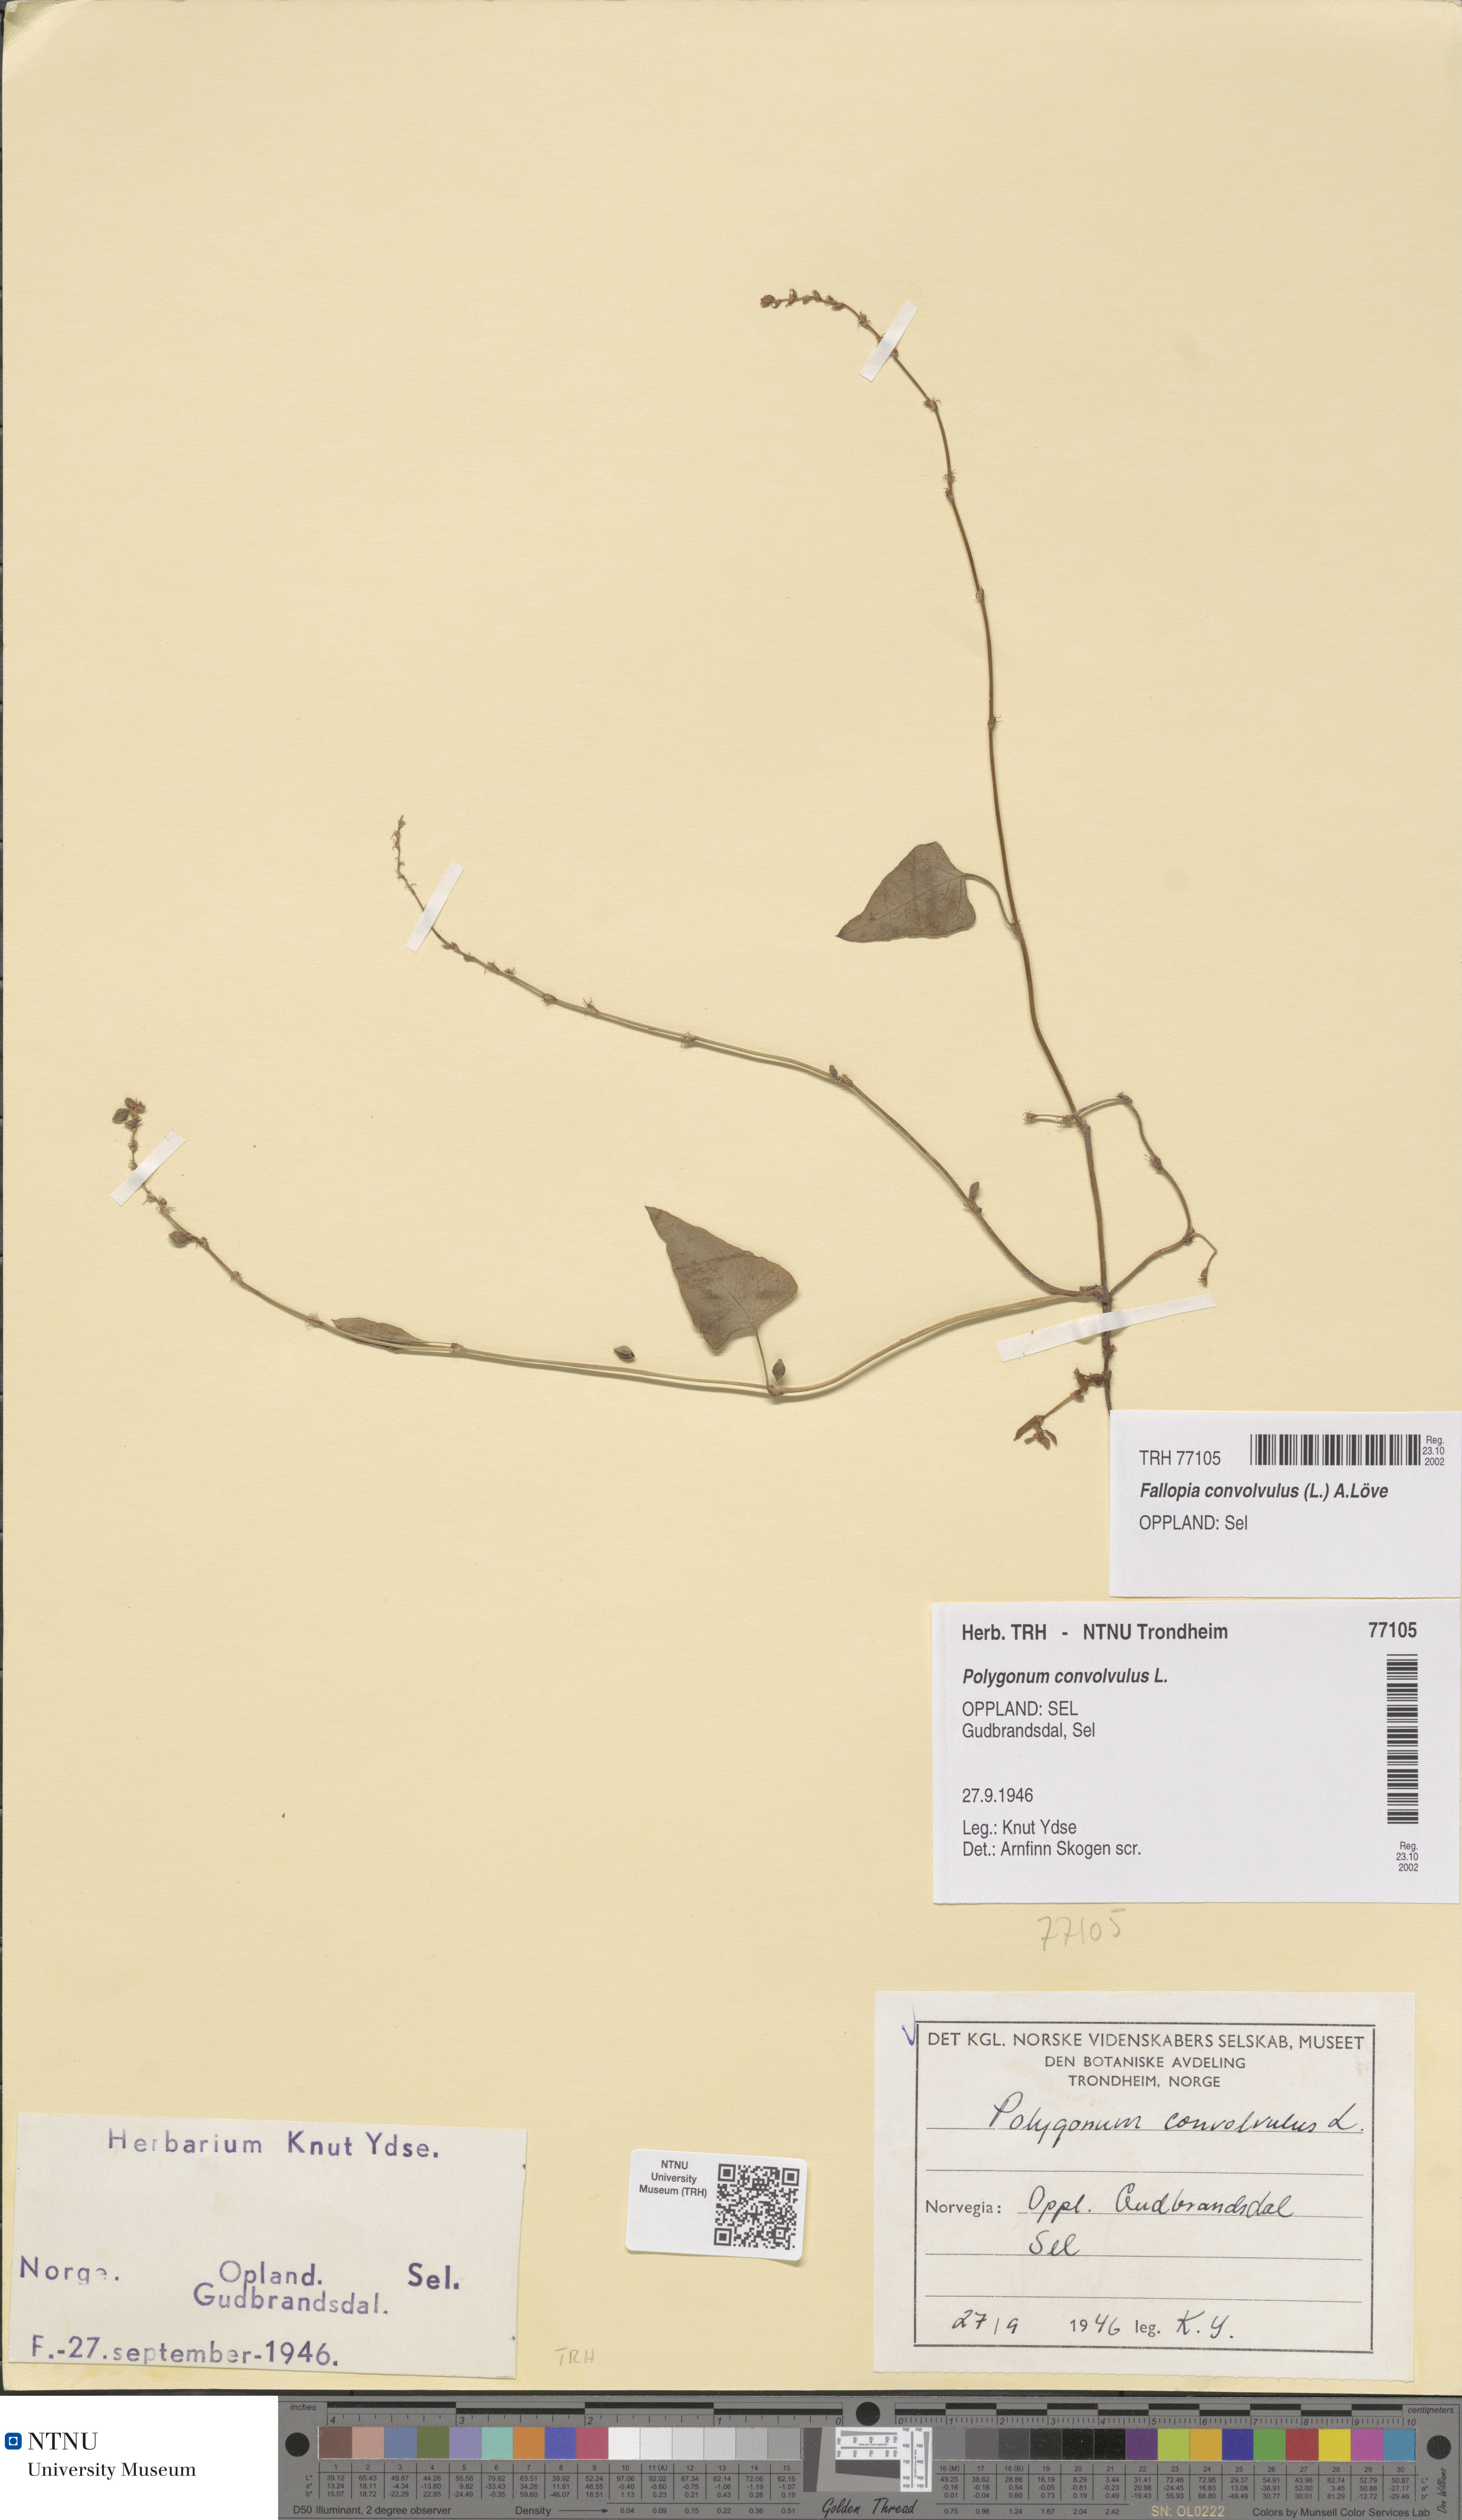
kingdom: Plantae
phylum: Tracheophyta
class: Magnoliopsida
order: Caryophyllales
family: Polygonaceae
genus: Fallopia
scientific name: Fallopia convolvulus
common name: Black bindweed
